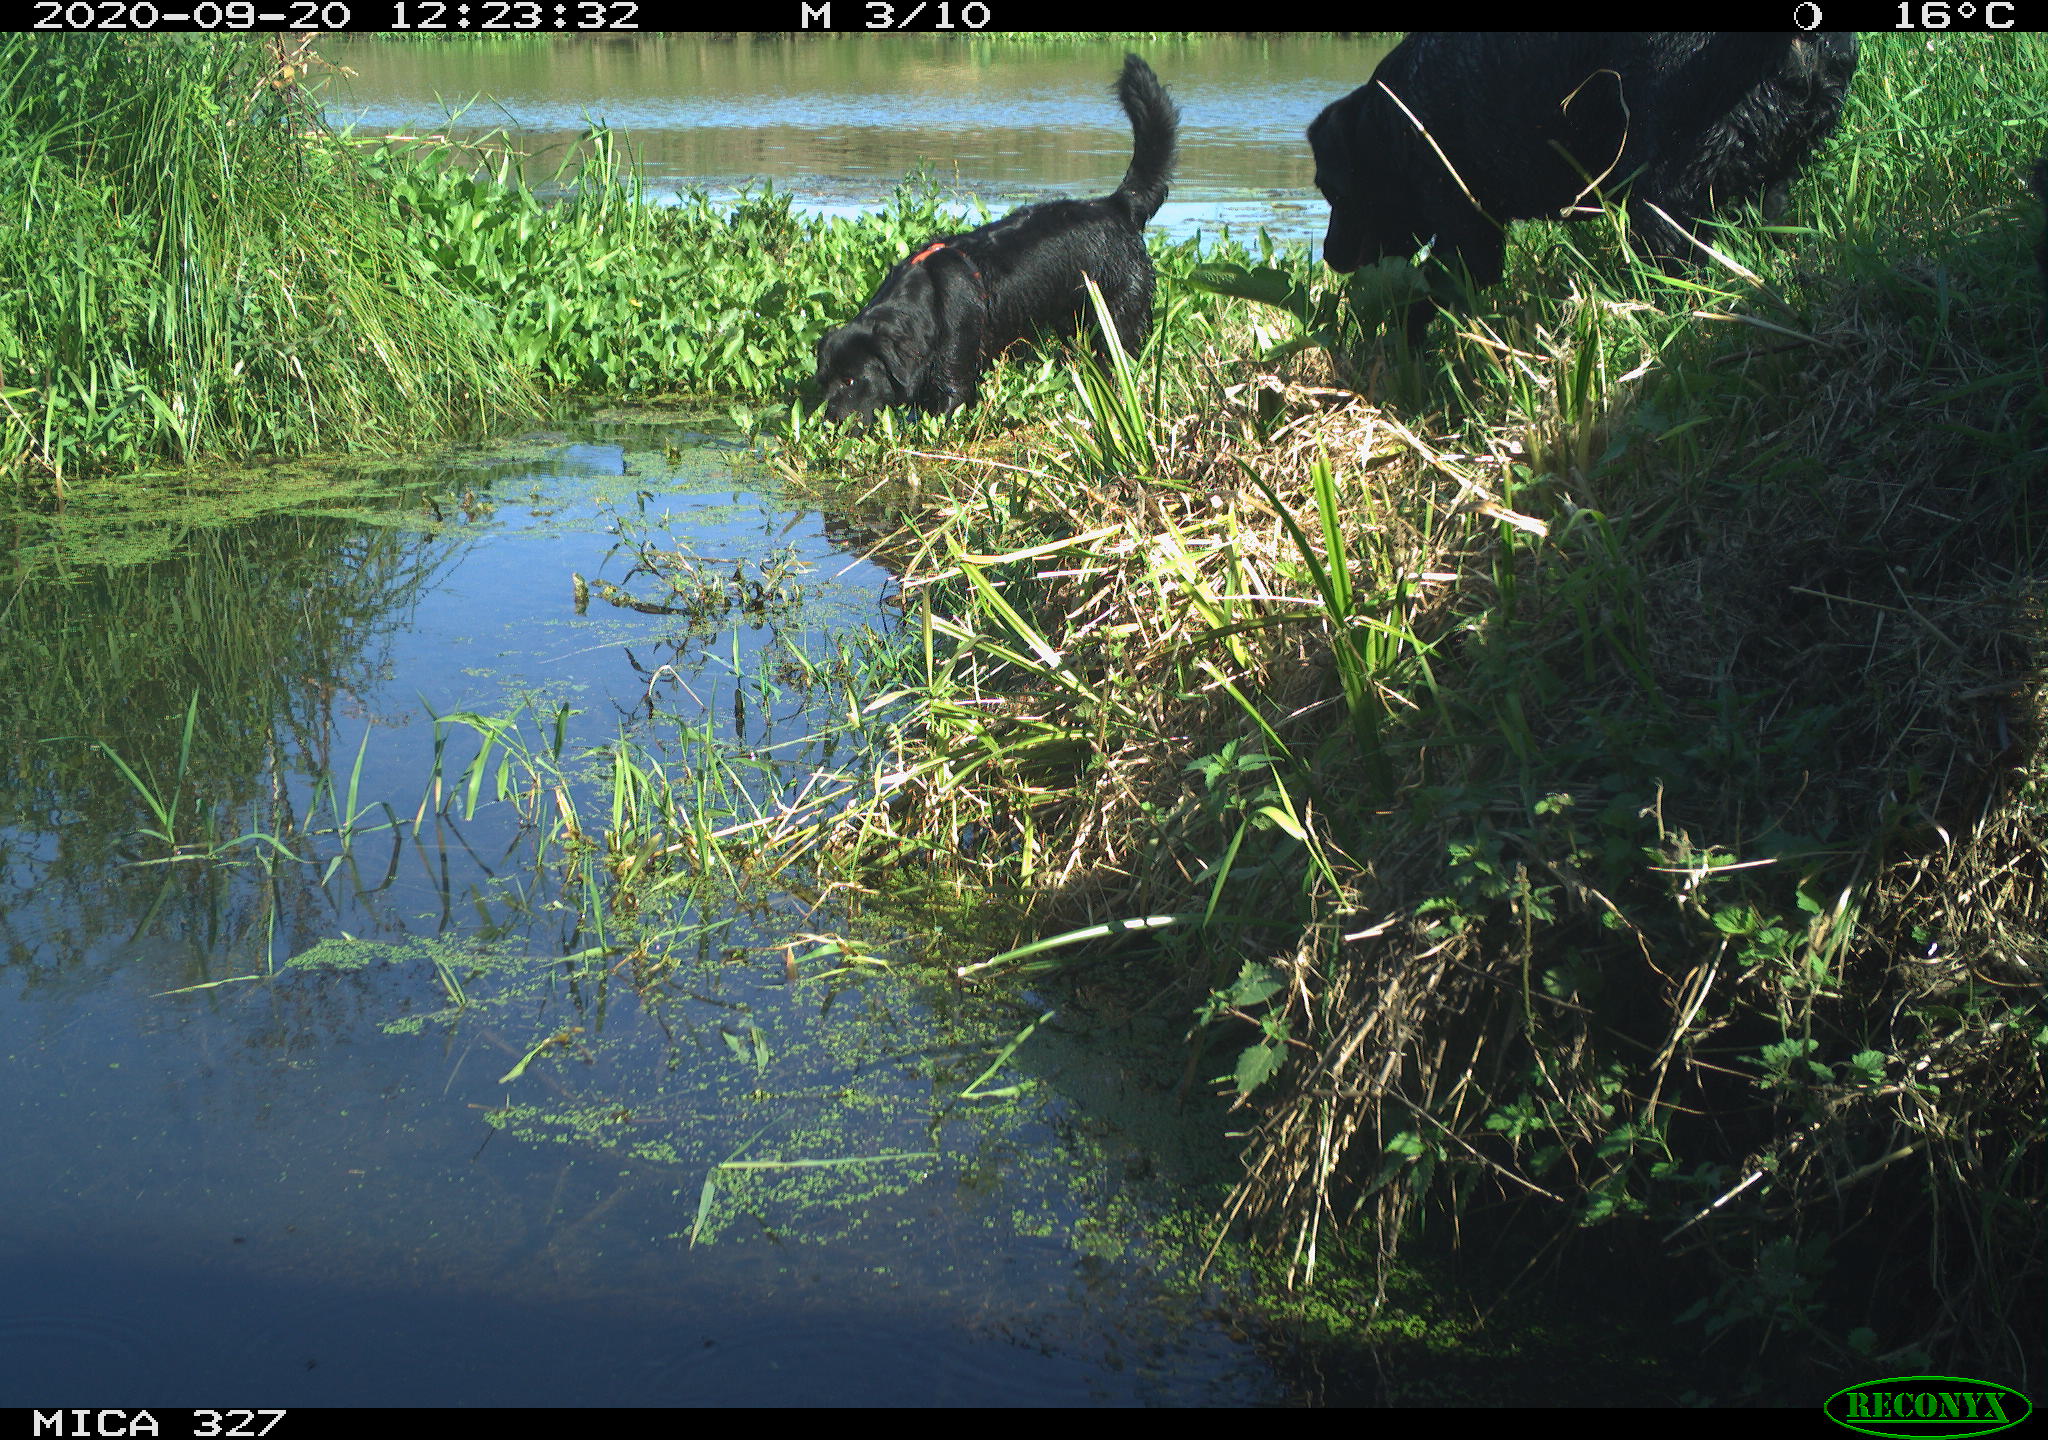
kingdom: Animalia
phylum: Chordata
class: Mammalia
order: Carnivora
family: Canidae
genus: Canis
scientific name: Canis lupus
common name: Gray wolf
